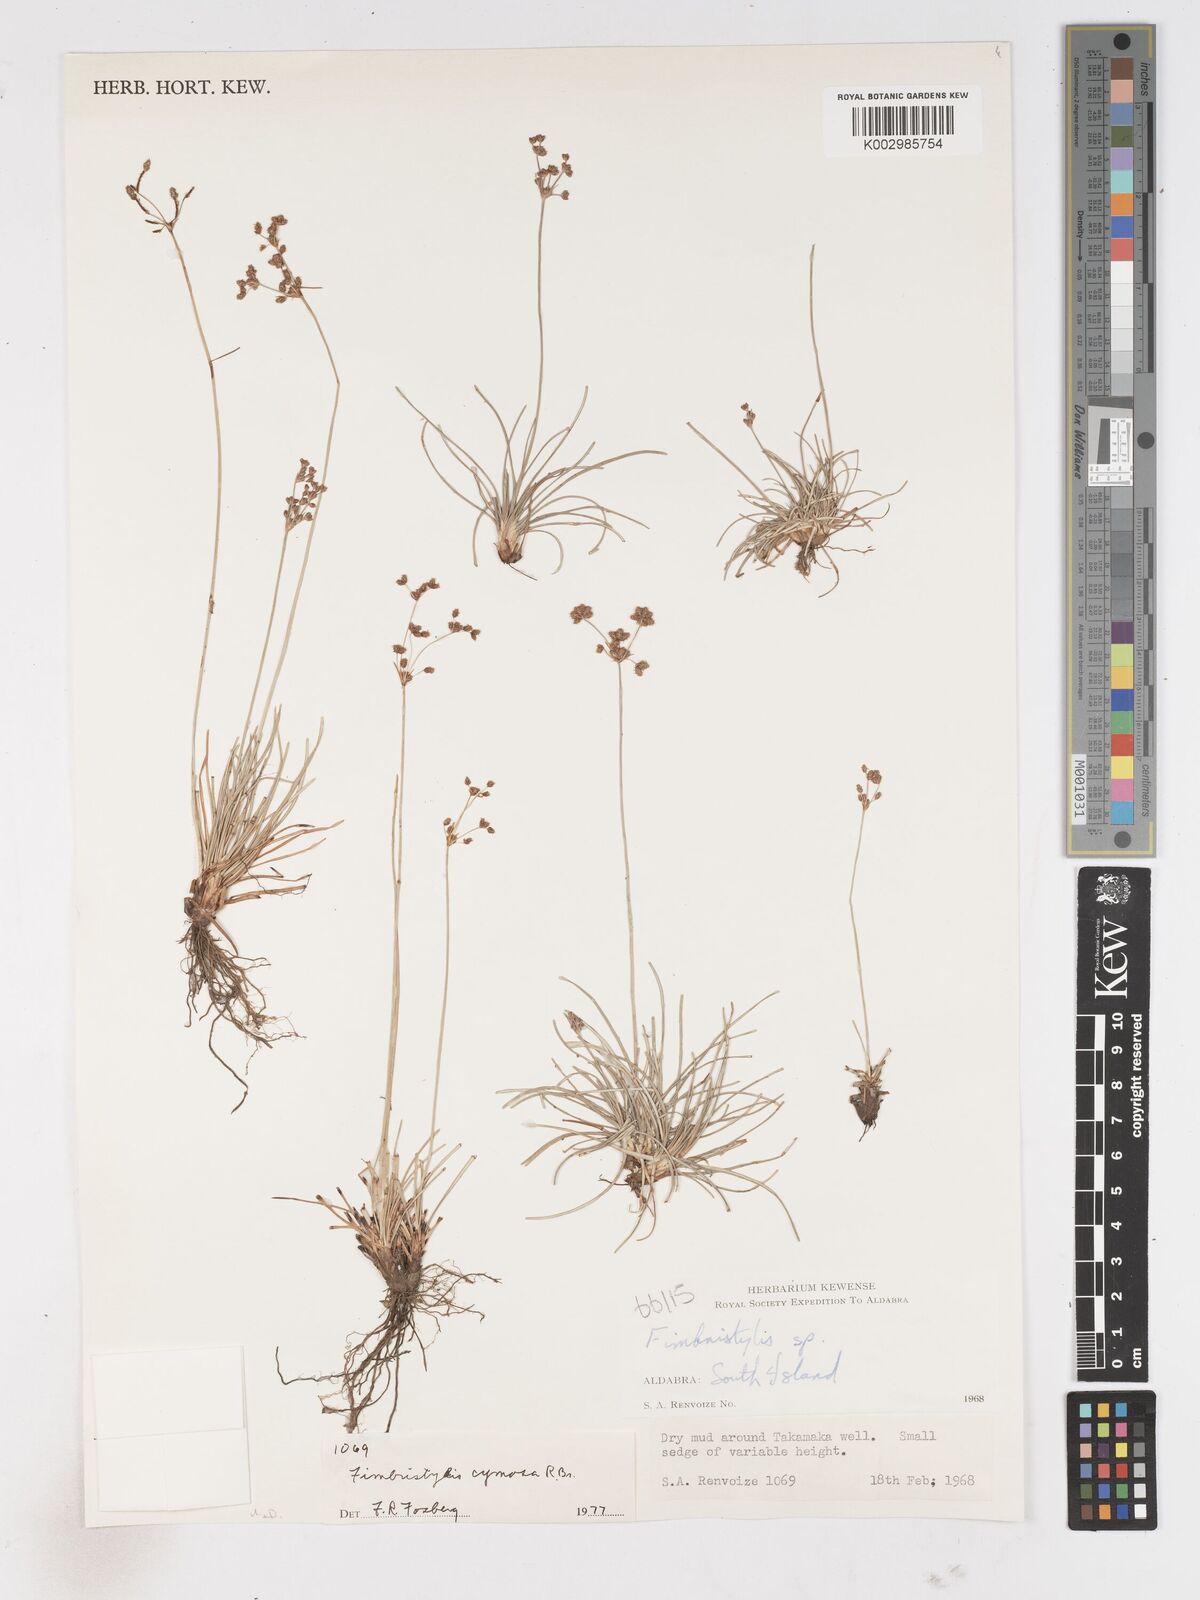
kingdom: Plantae
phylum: Tracheophyta
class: Liliopsida
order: Poales
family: Cyperaceae
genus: Fimbristylis
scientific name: Fimbristylis cymosa
